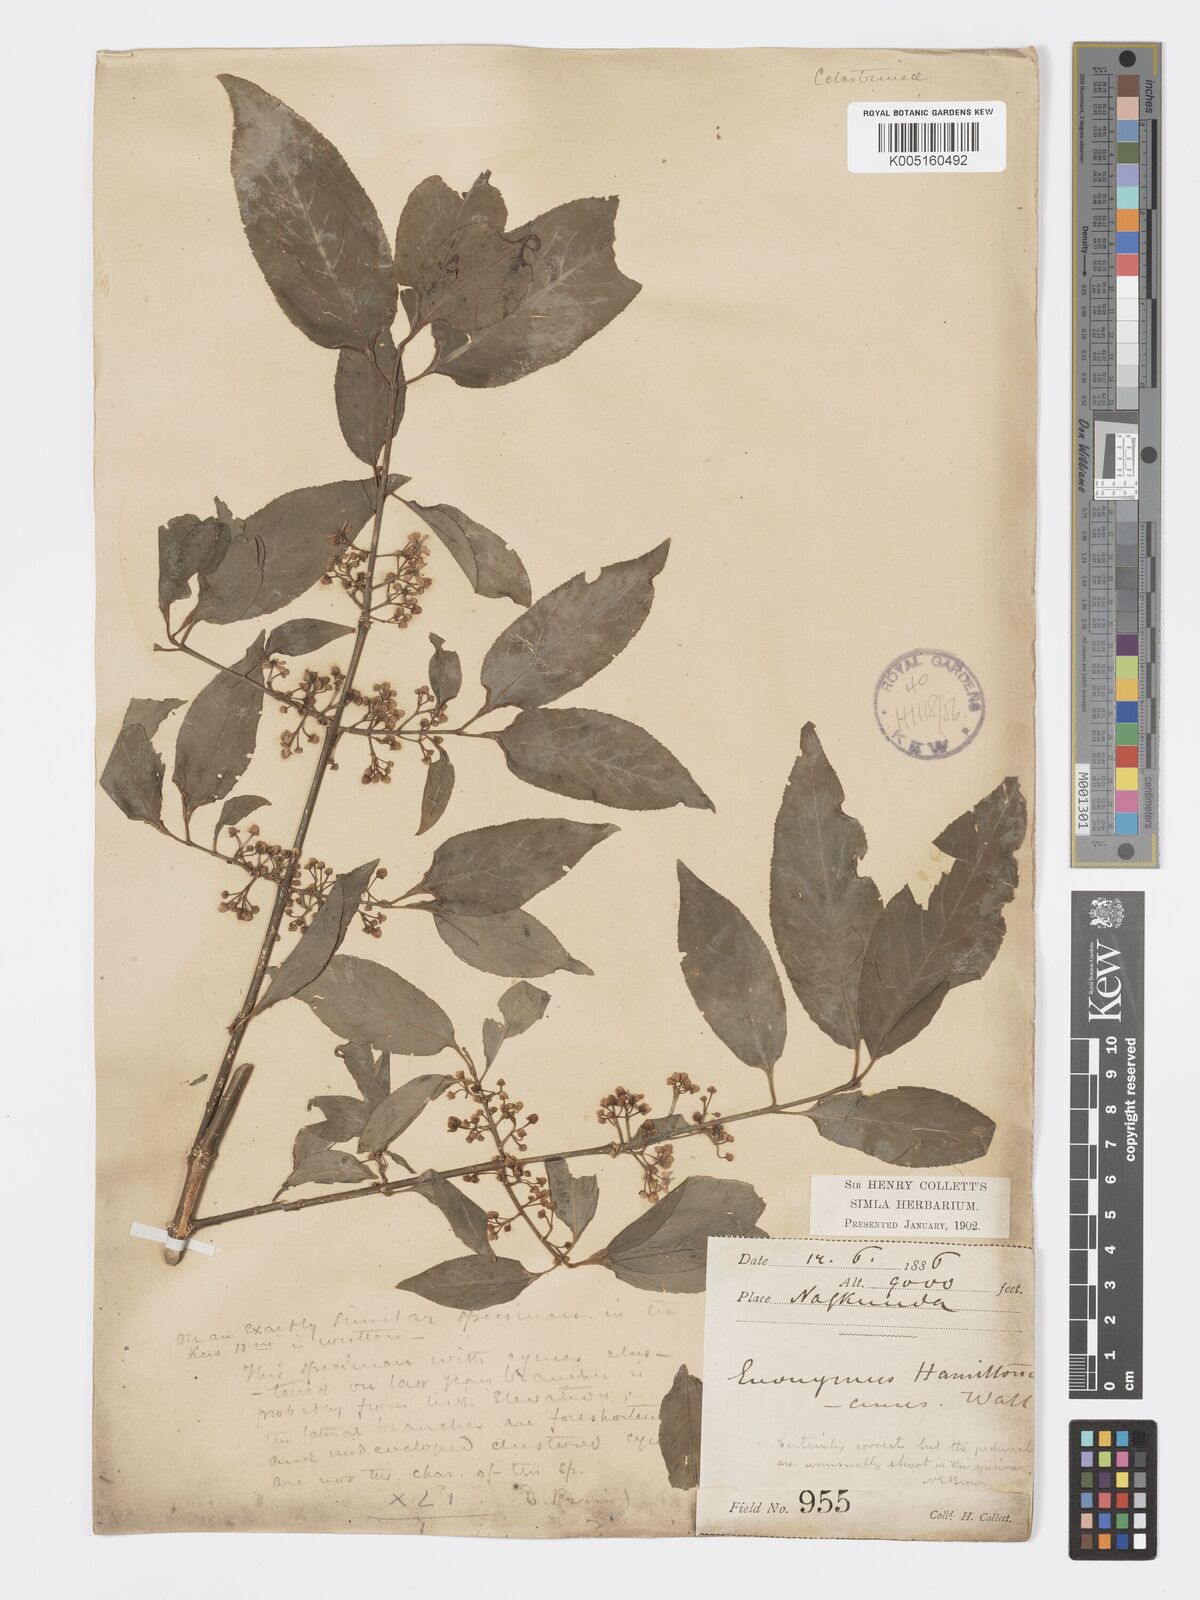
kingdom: Plantae
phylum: Tracheophyta
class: Magnoliopsida
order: Celastrales
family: Celastraceae
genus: Euonymus
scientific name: Euonymus
